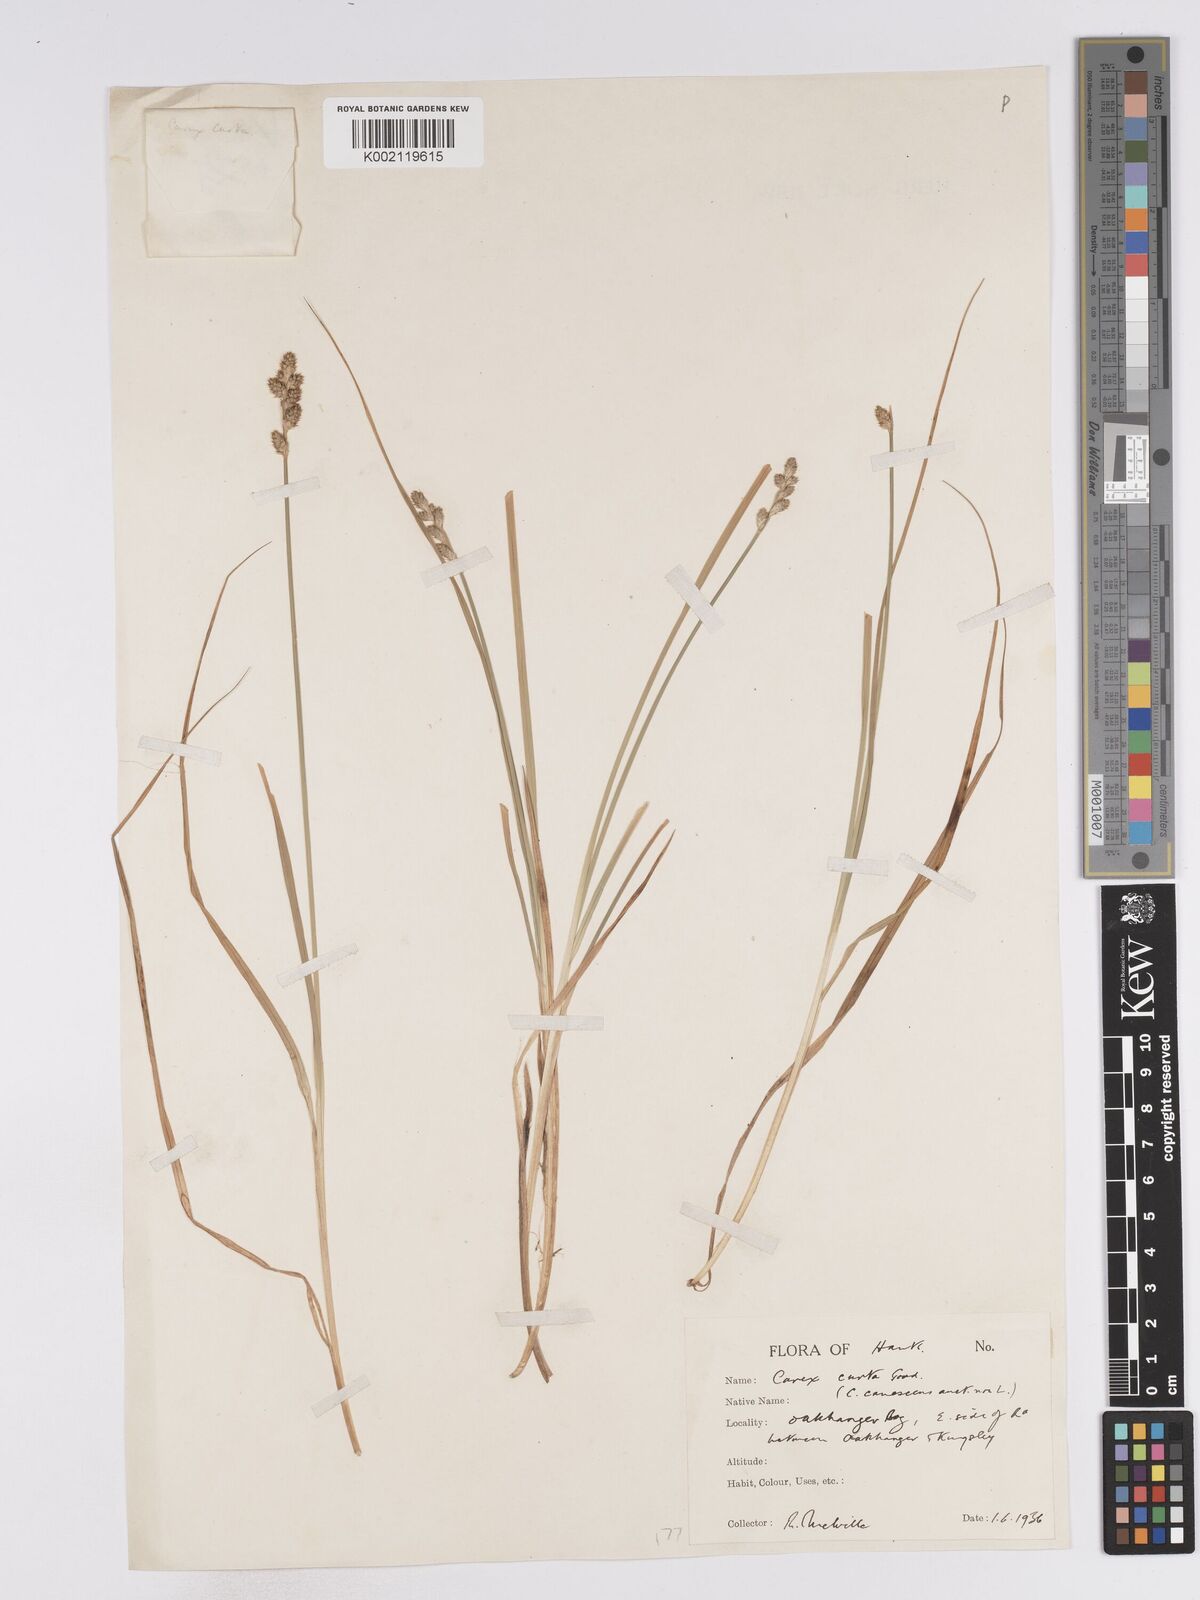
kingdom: Plantae
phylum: Tracheophyta
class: Liliopsida
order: Poales
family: Cyperaceae
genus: Carex
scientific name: Carex curta
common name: White sedge
